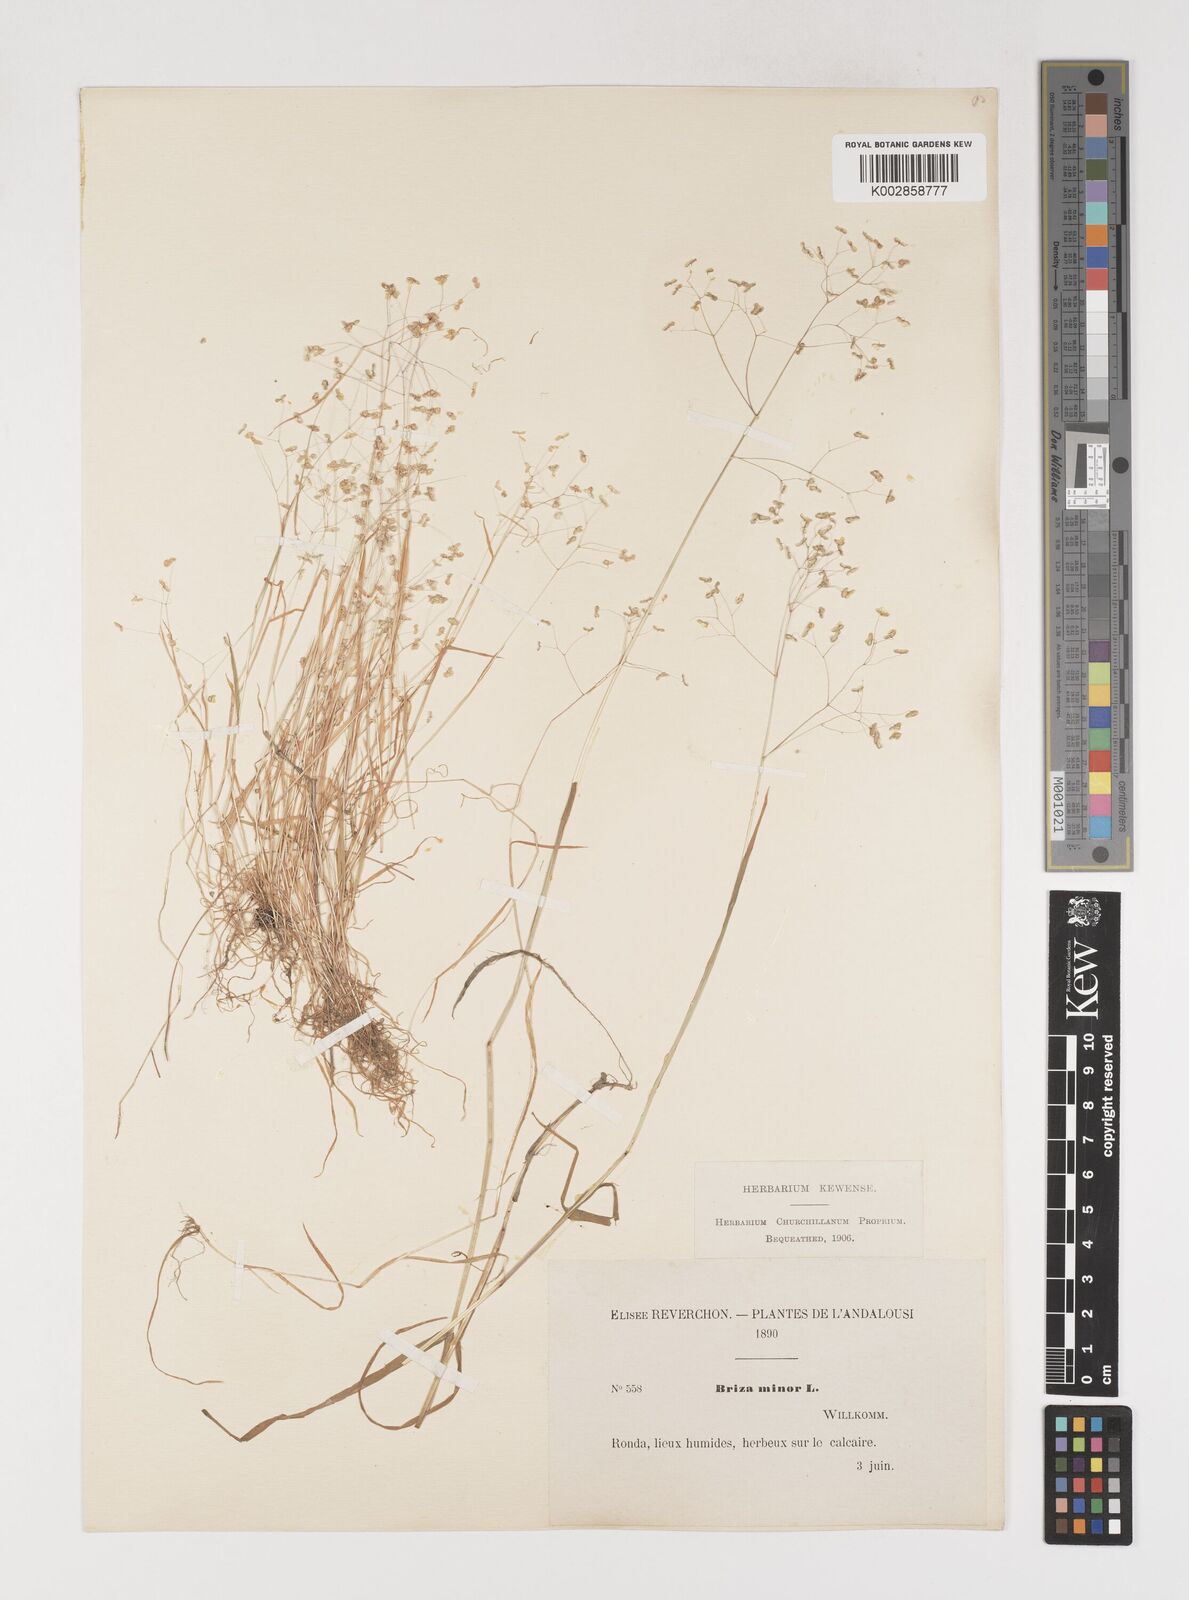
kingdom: Plantae
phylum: Tracheophyta
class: Liliopsida
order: Poales
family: Poaceae
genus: Briza
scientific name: Briza minor
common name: Lesser quaking-grass
